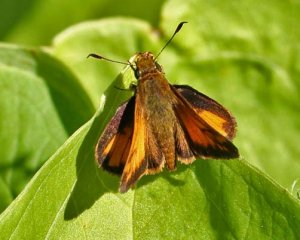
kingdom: Animalia
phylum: Arthropoda
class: Insecta
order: Lepidoptera
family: Hesperiidae
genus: Lon
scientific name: Lon hobomok
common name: Hobomok Skipper
